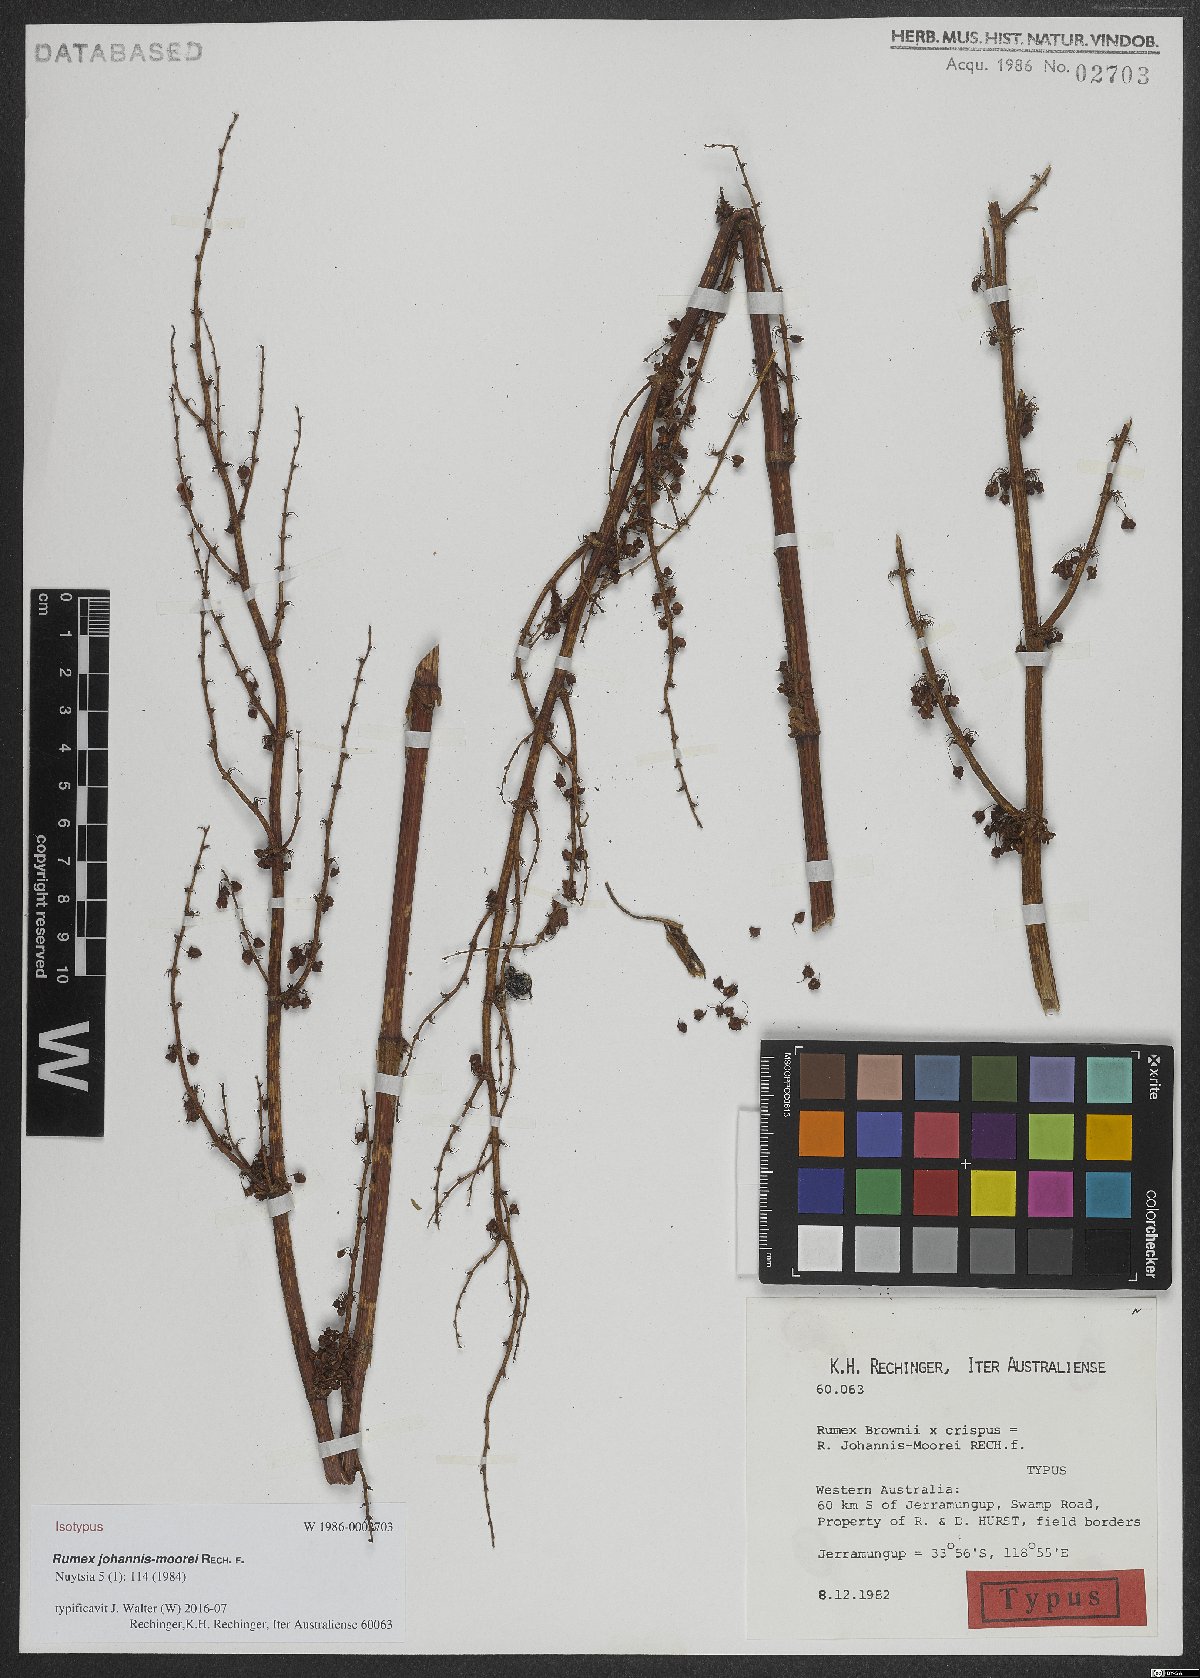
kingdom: Plantae
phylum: Tracheophyta
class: Magnoliopsida
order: Caryophyllales
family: Polygonaceae
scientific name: Polygonaceae
